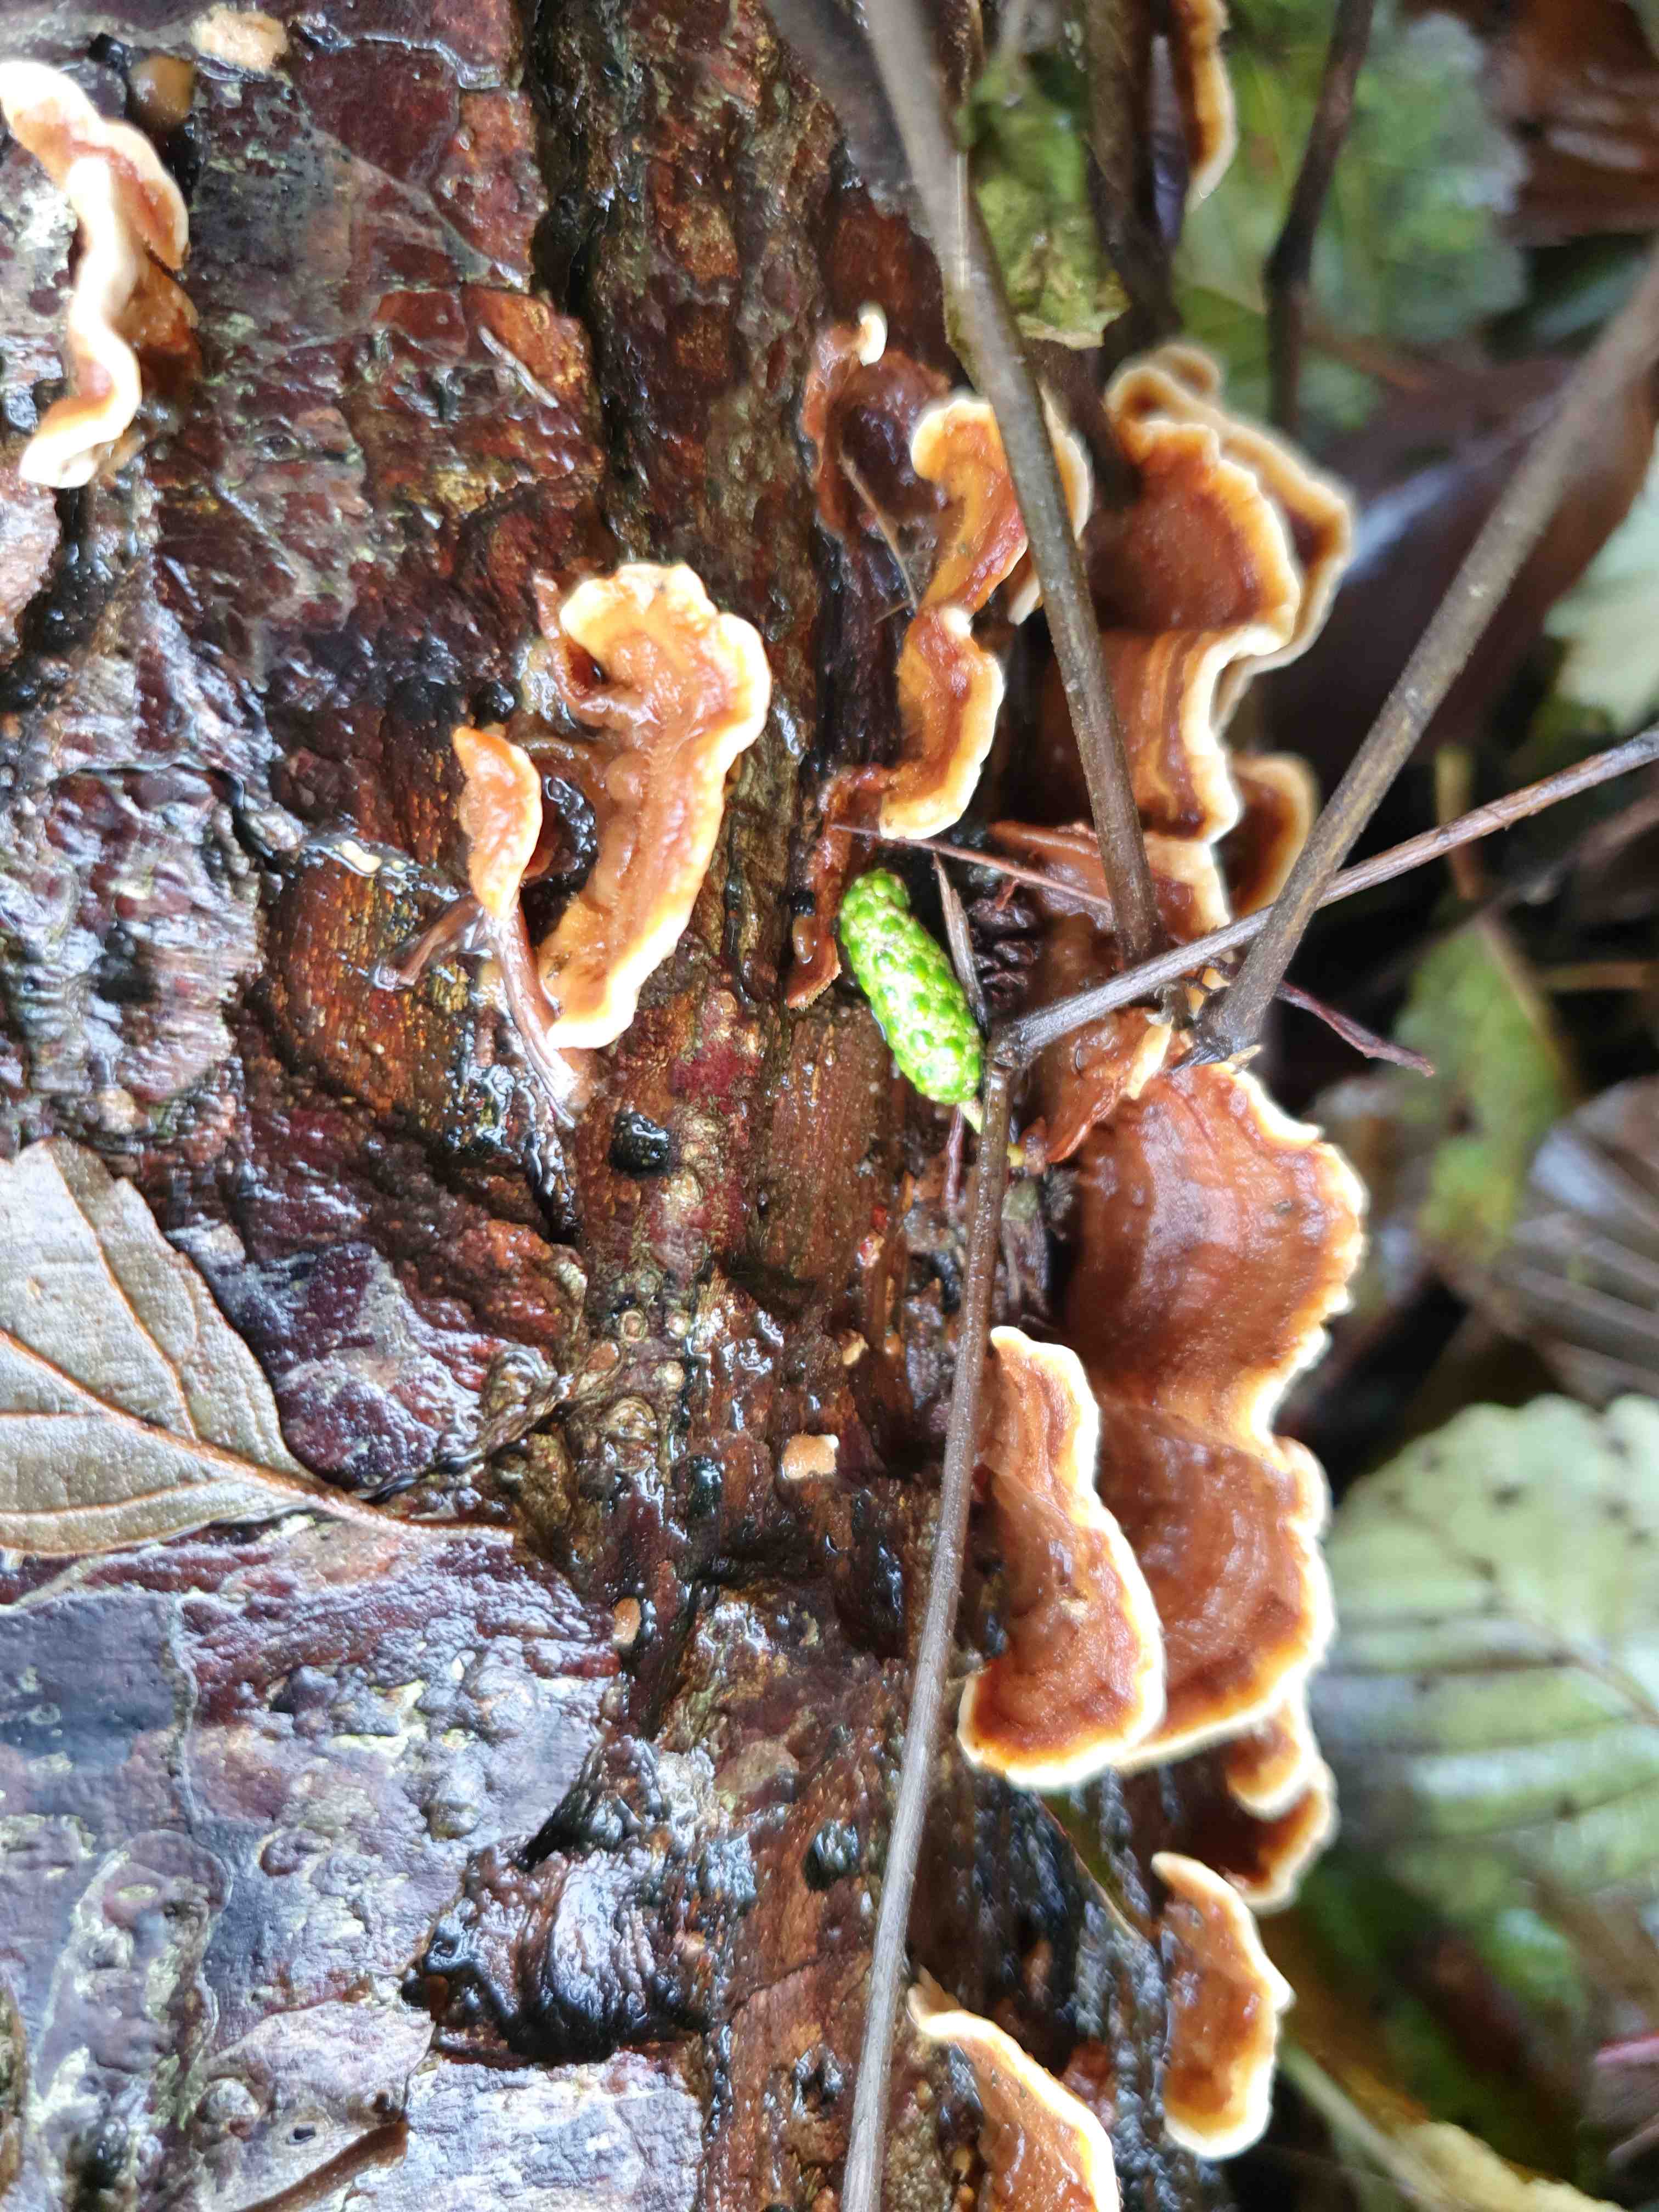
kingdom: Fungi
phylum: Basidiomycota
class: Agaricomycetes
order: Russulales
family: Stereaceae
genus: Stereum
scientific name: Stereum subtomentosum
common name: smuk lædersvamp
